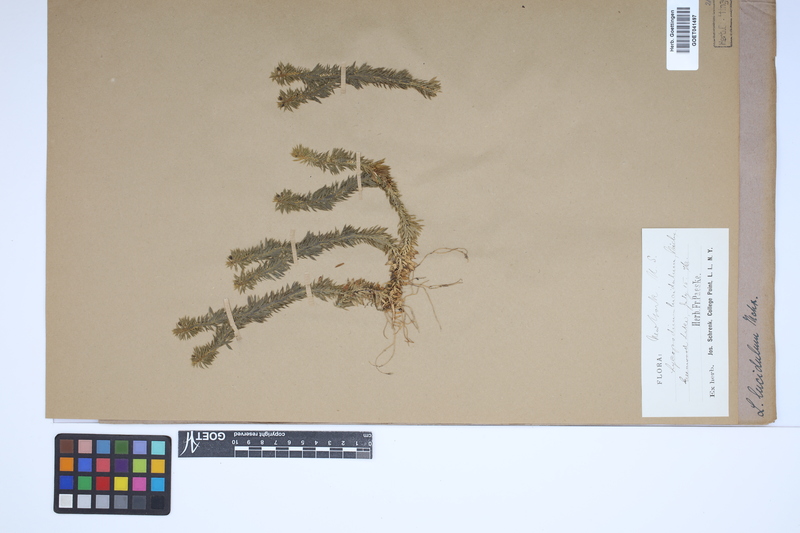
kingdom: Plantae
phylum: Tracheophyta
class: Lycopodiopsida
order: Lycopodiales
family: Lycopodiaceae
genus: Huperzia
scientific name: Huperzia lucidula
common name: Shining clubmoss
